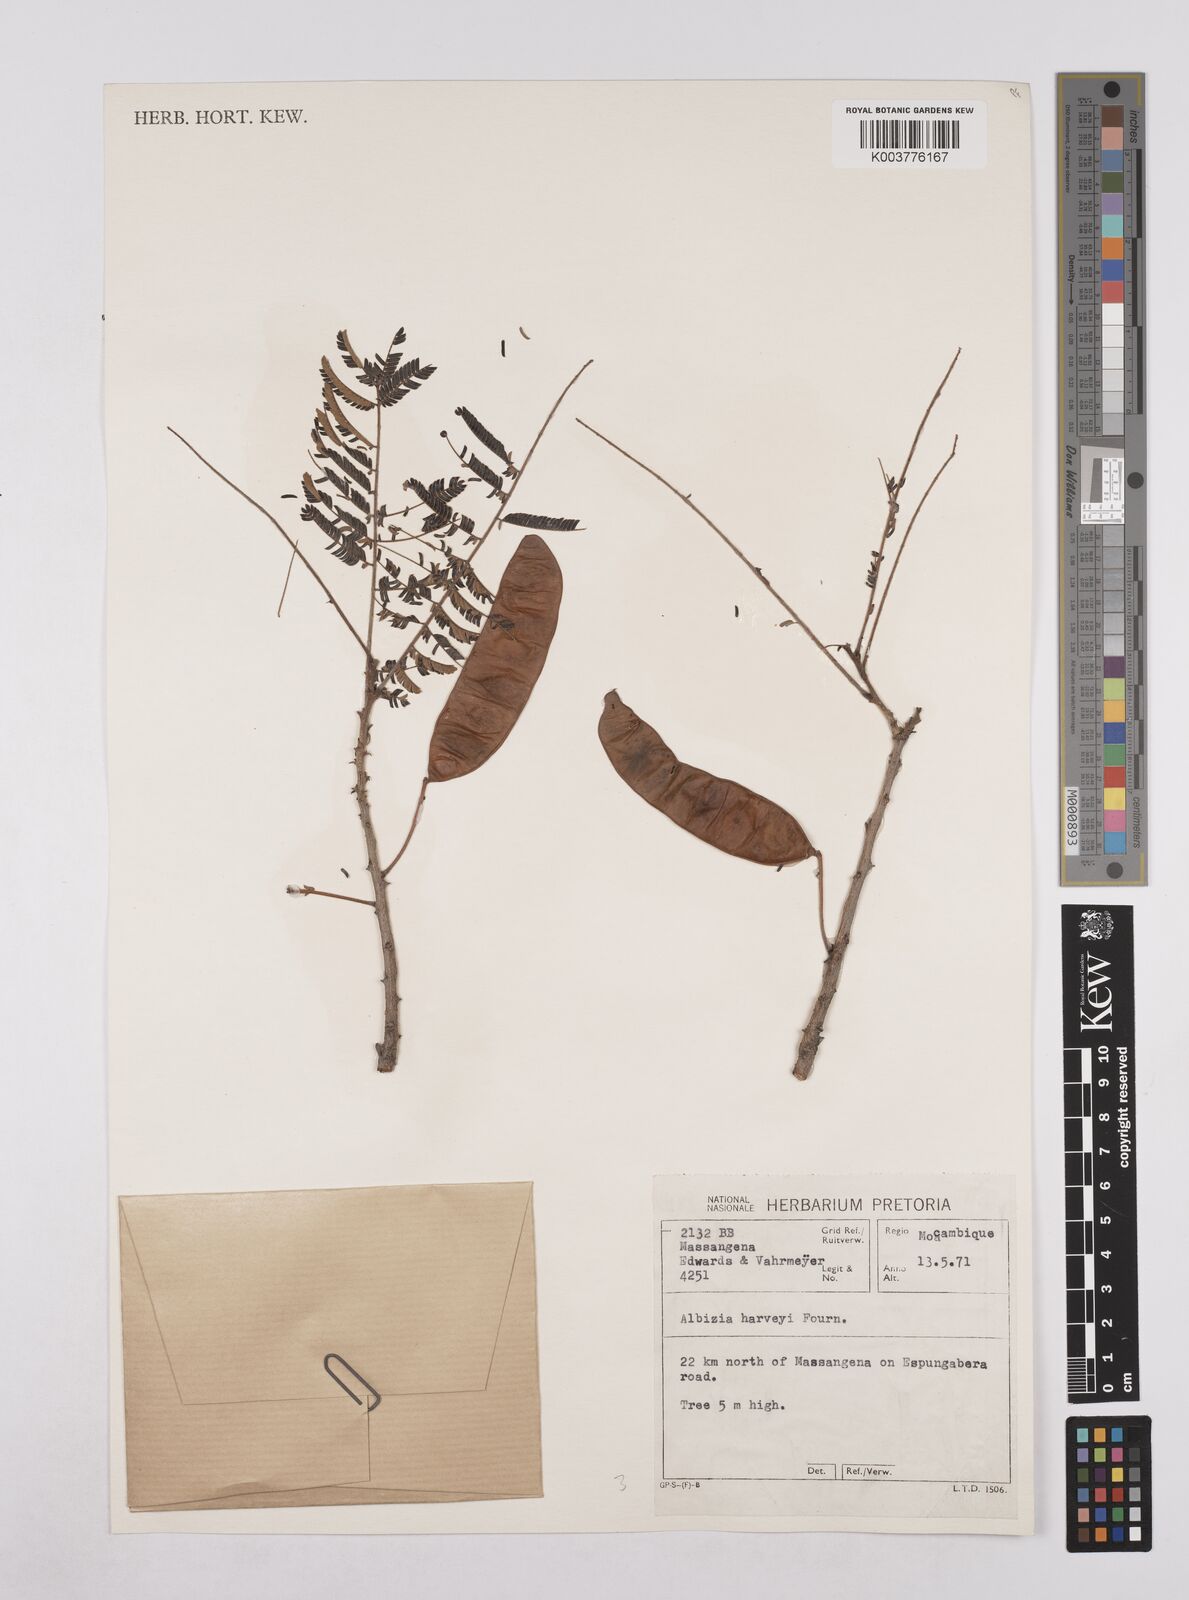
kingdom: Plantae
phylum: Tracheophyta
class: Magnoliopsida
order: Fabales
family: Fabaceae
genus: Albizia
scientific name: Albizia harveyi
